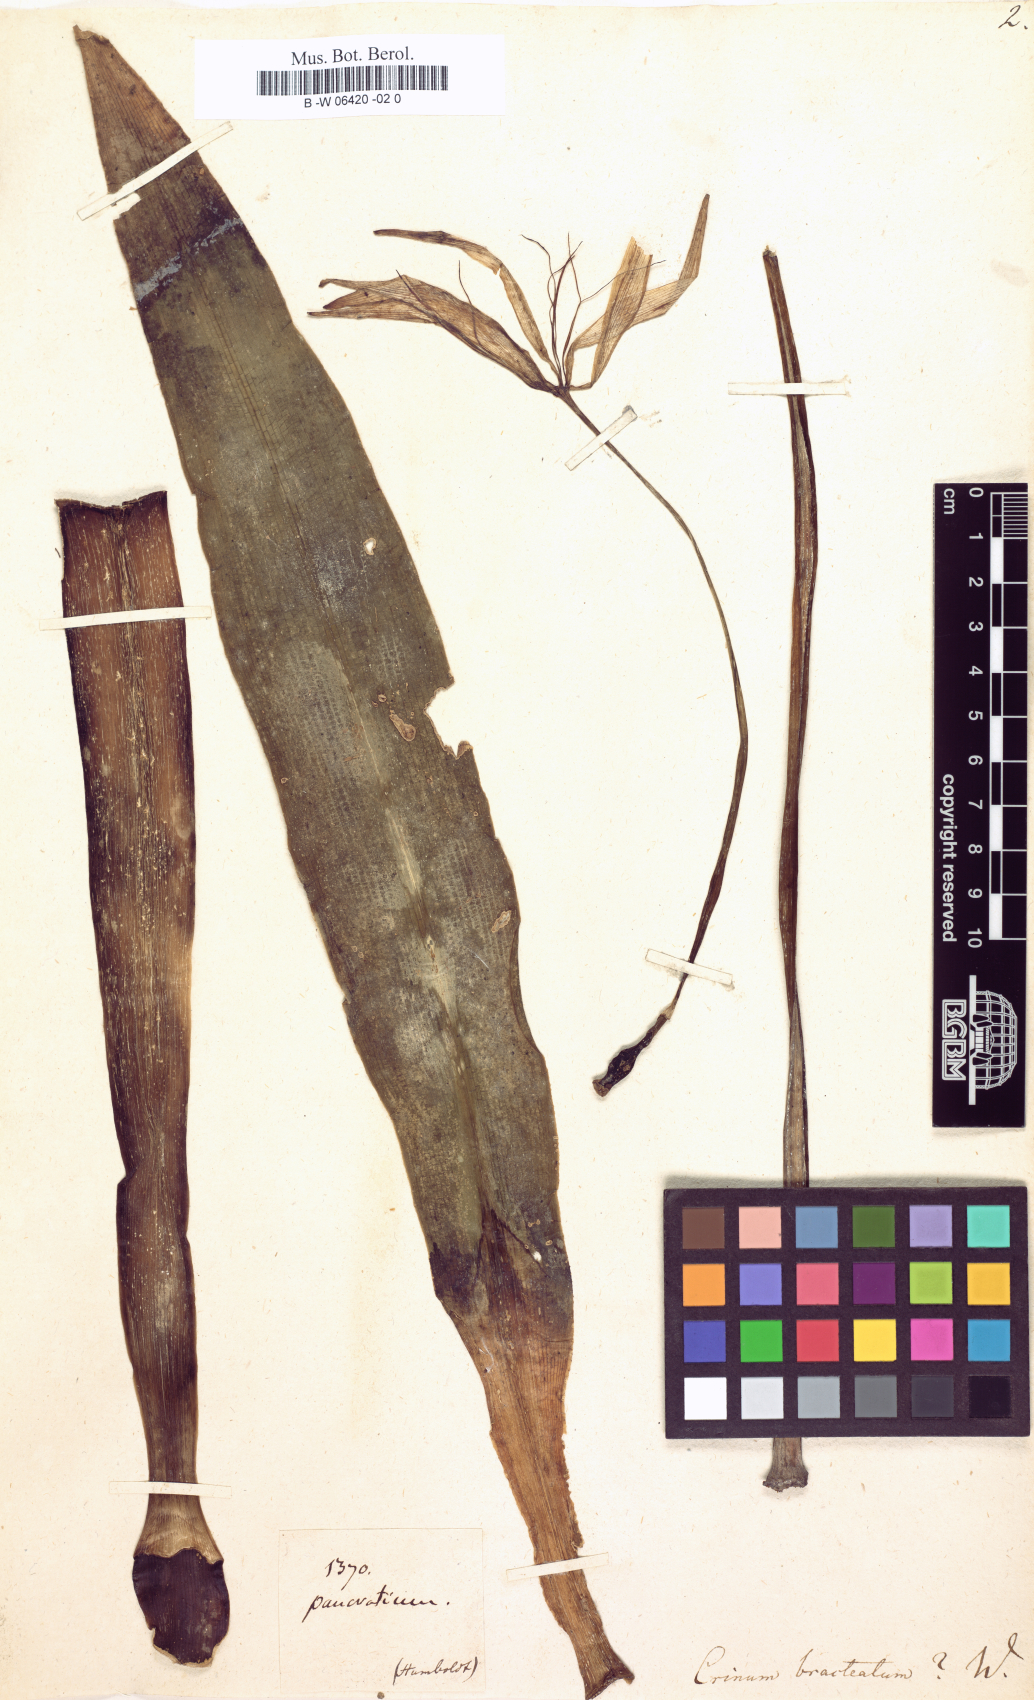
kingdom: Plantae
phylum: Tracheophyta
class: Liliopsida
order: Asparagales
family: Amaryllidaceae
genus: Crinum
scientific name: Crinum asiaticum
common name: Poisonbulb
